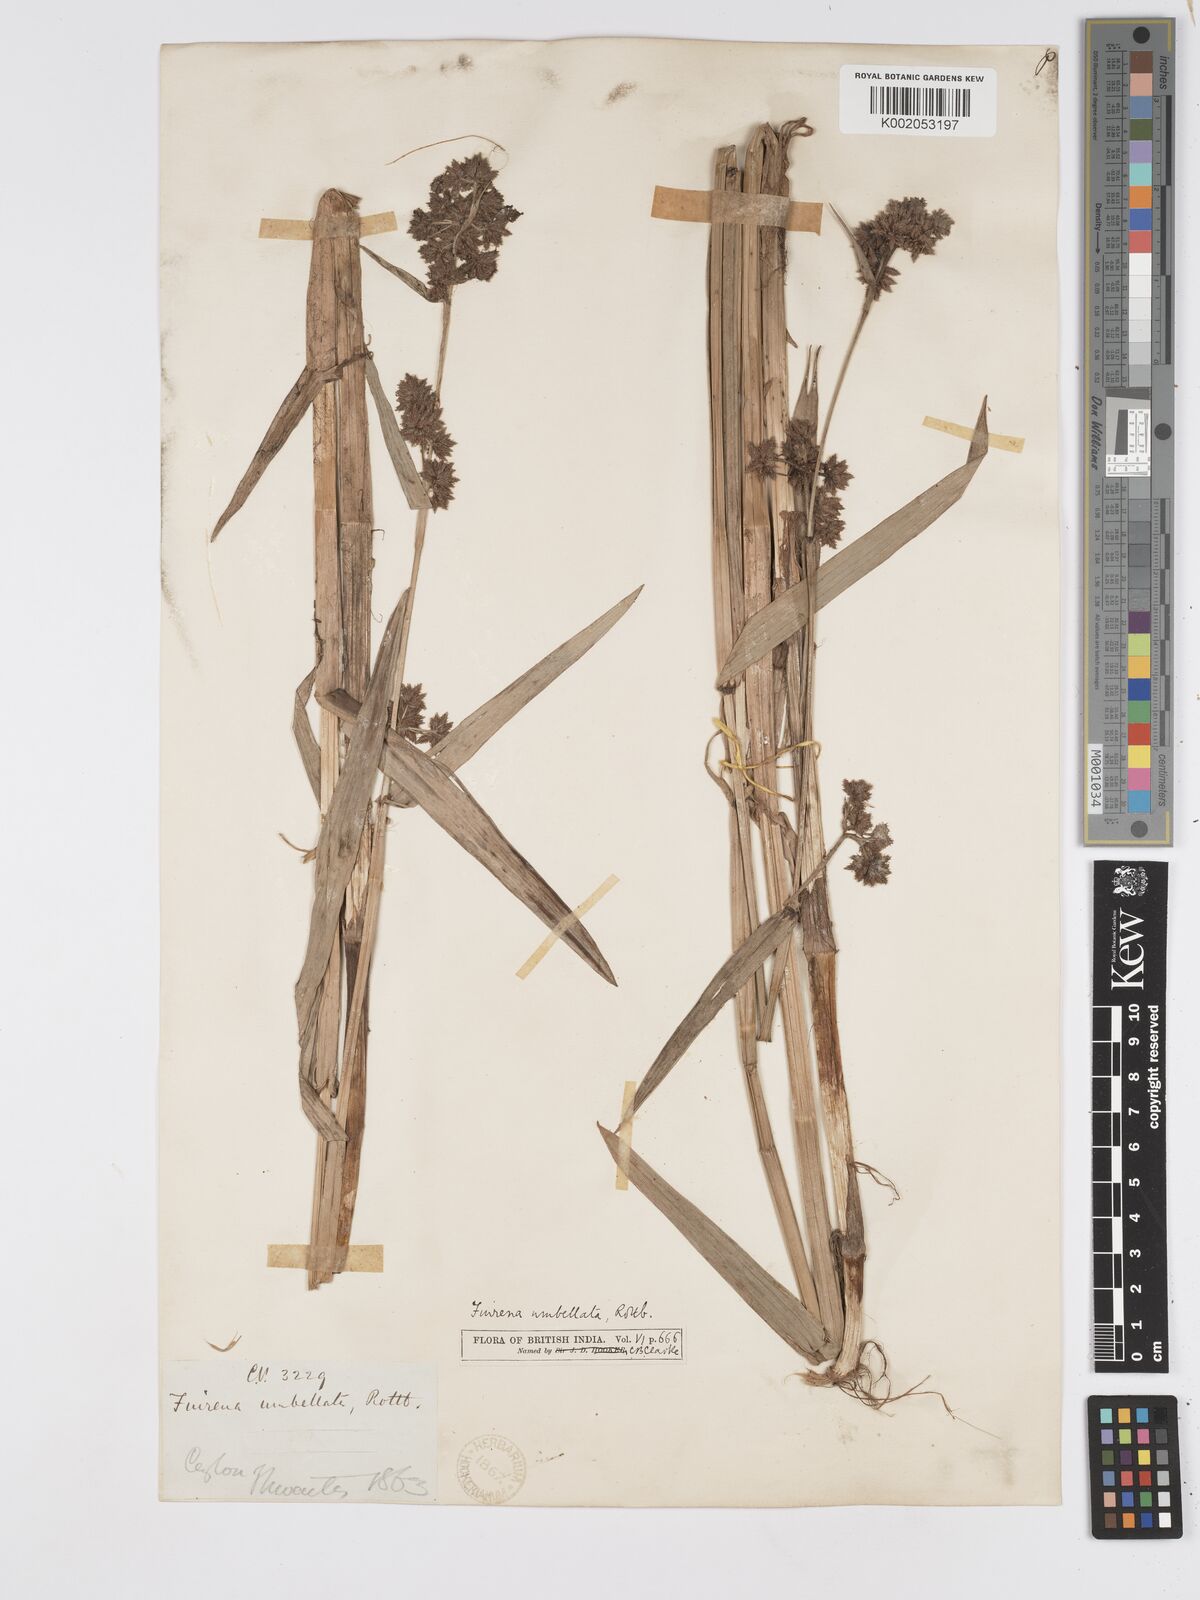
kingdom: Plantae
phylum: Tracheophyta
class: Liliopsida
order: Poales
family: Cyperaceae
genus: Fuirena
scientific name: Fuirena umbellata
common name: Yefen
